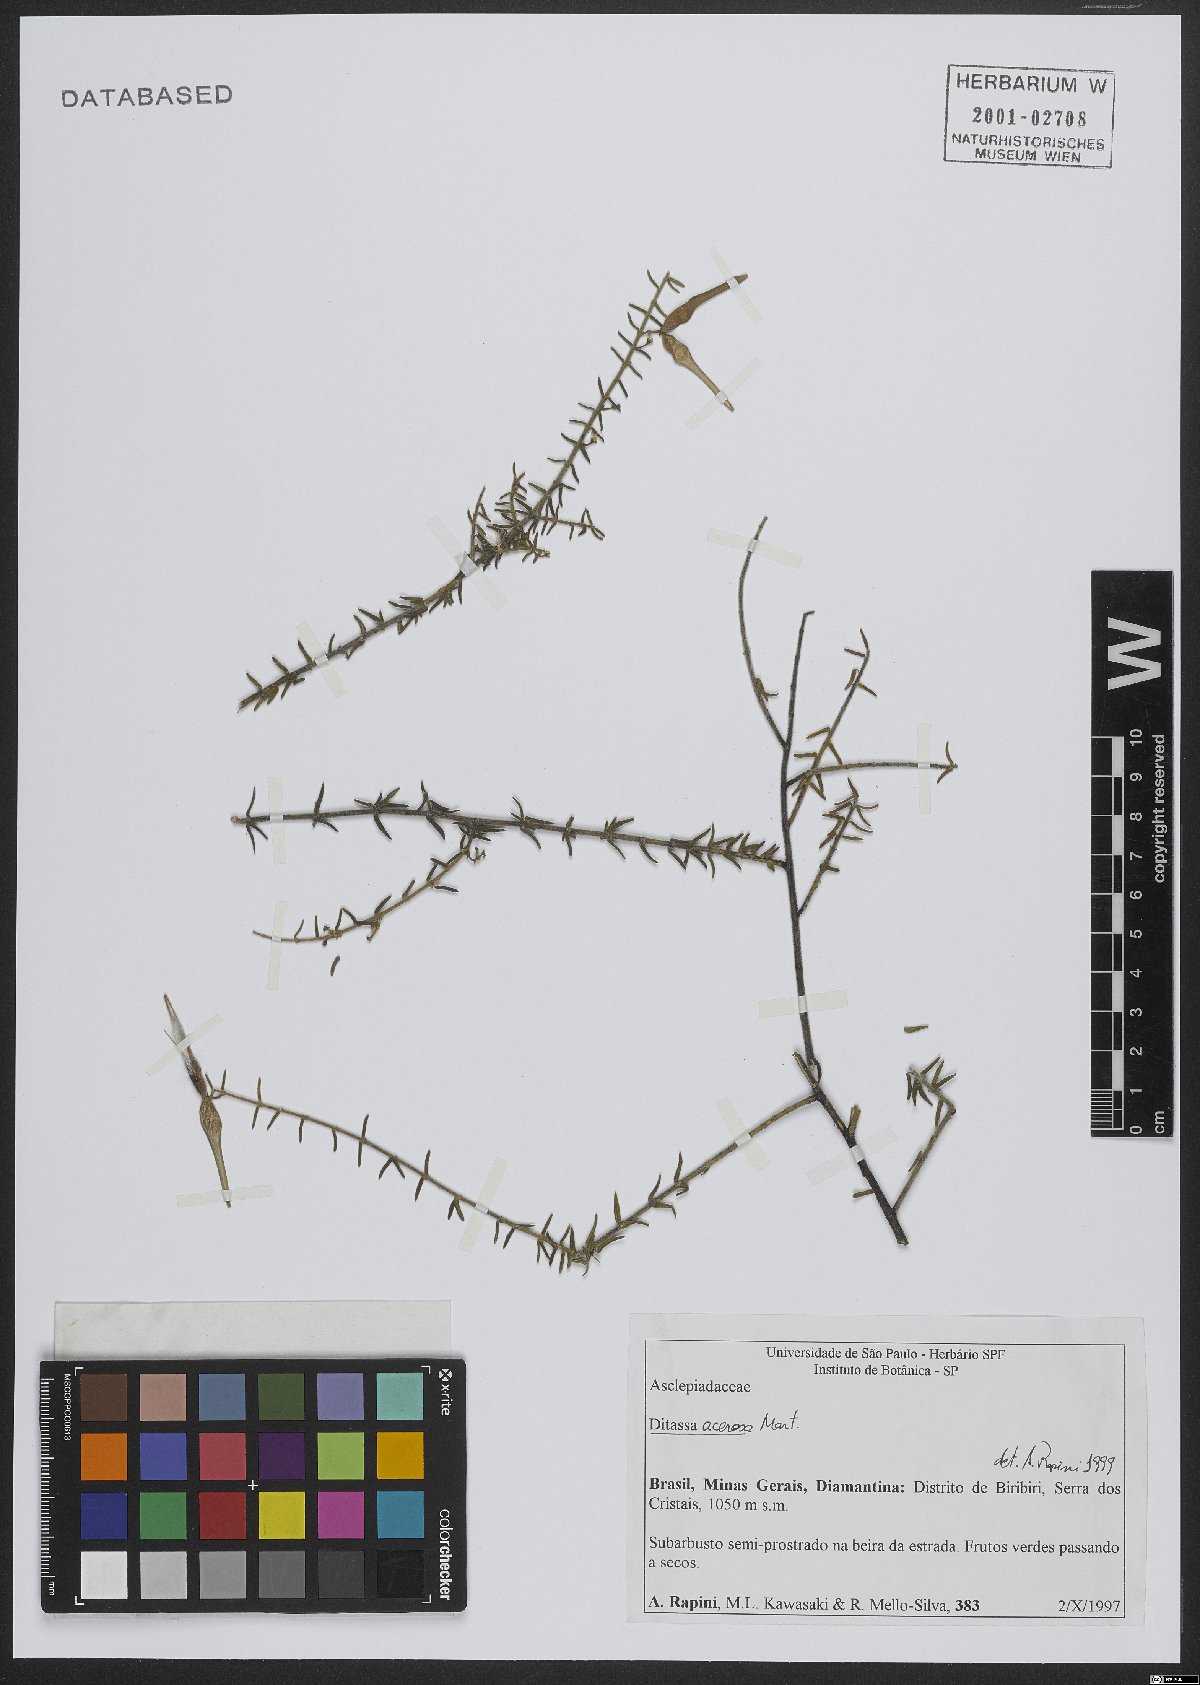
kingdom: Plantae
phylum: Tracheophyta
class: Magnoliopsida
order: Gentianales
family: Apocynaceae
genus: Minaria
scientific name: Minaria acerosa
